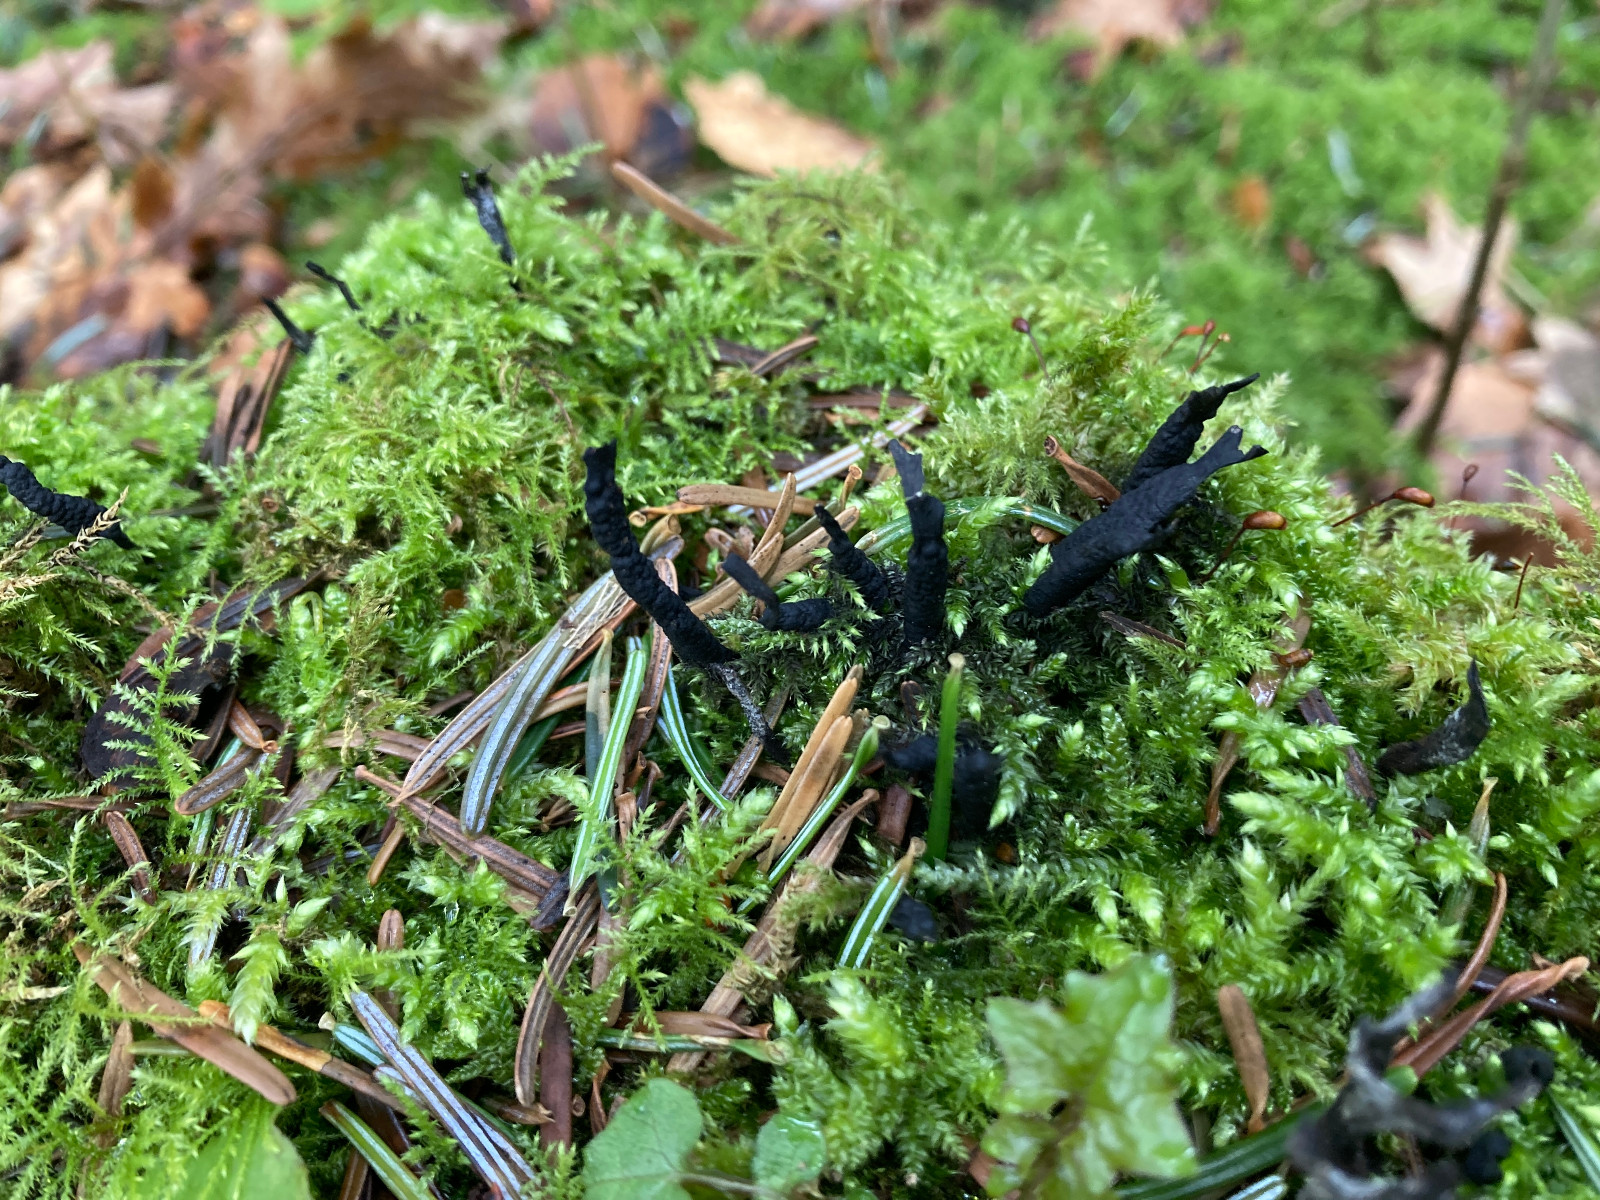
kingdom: Fungi
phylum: Ascomycota
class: Sordariomycetes
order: Xylariales
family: Xylariaceae
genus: Xylaria
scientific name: Xylaria hypoxylon
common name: grenet stødsvamp
